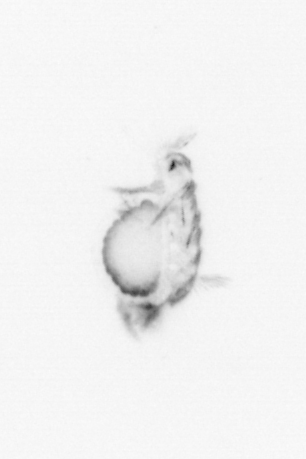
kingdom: Animalia
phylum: Annelida
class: Polychaeta
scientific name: Polychaeta
